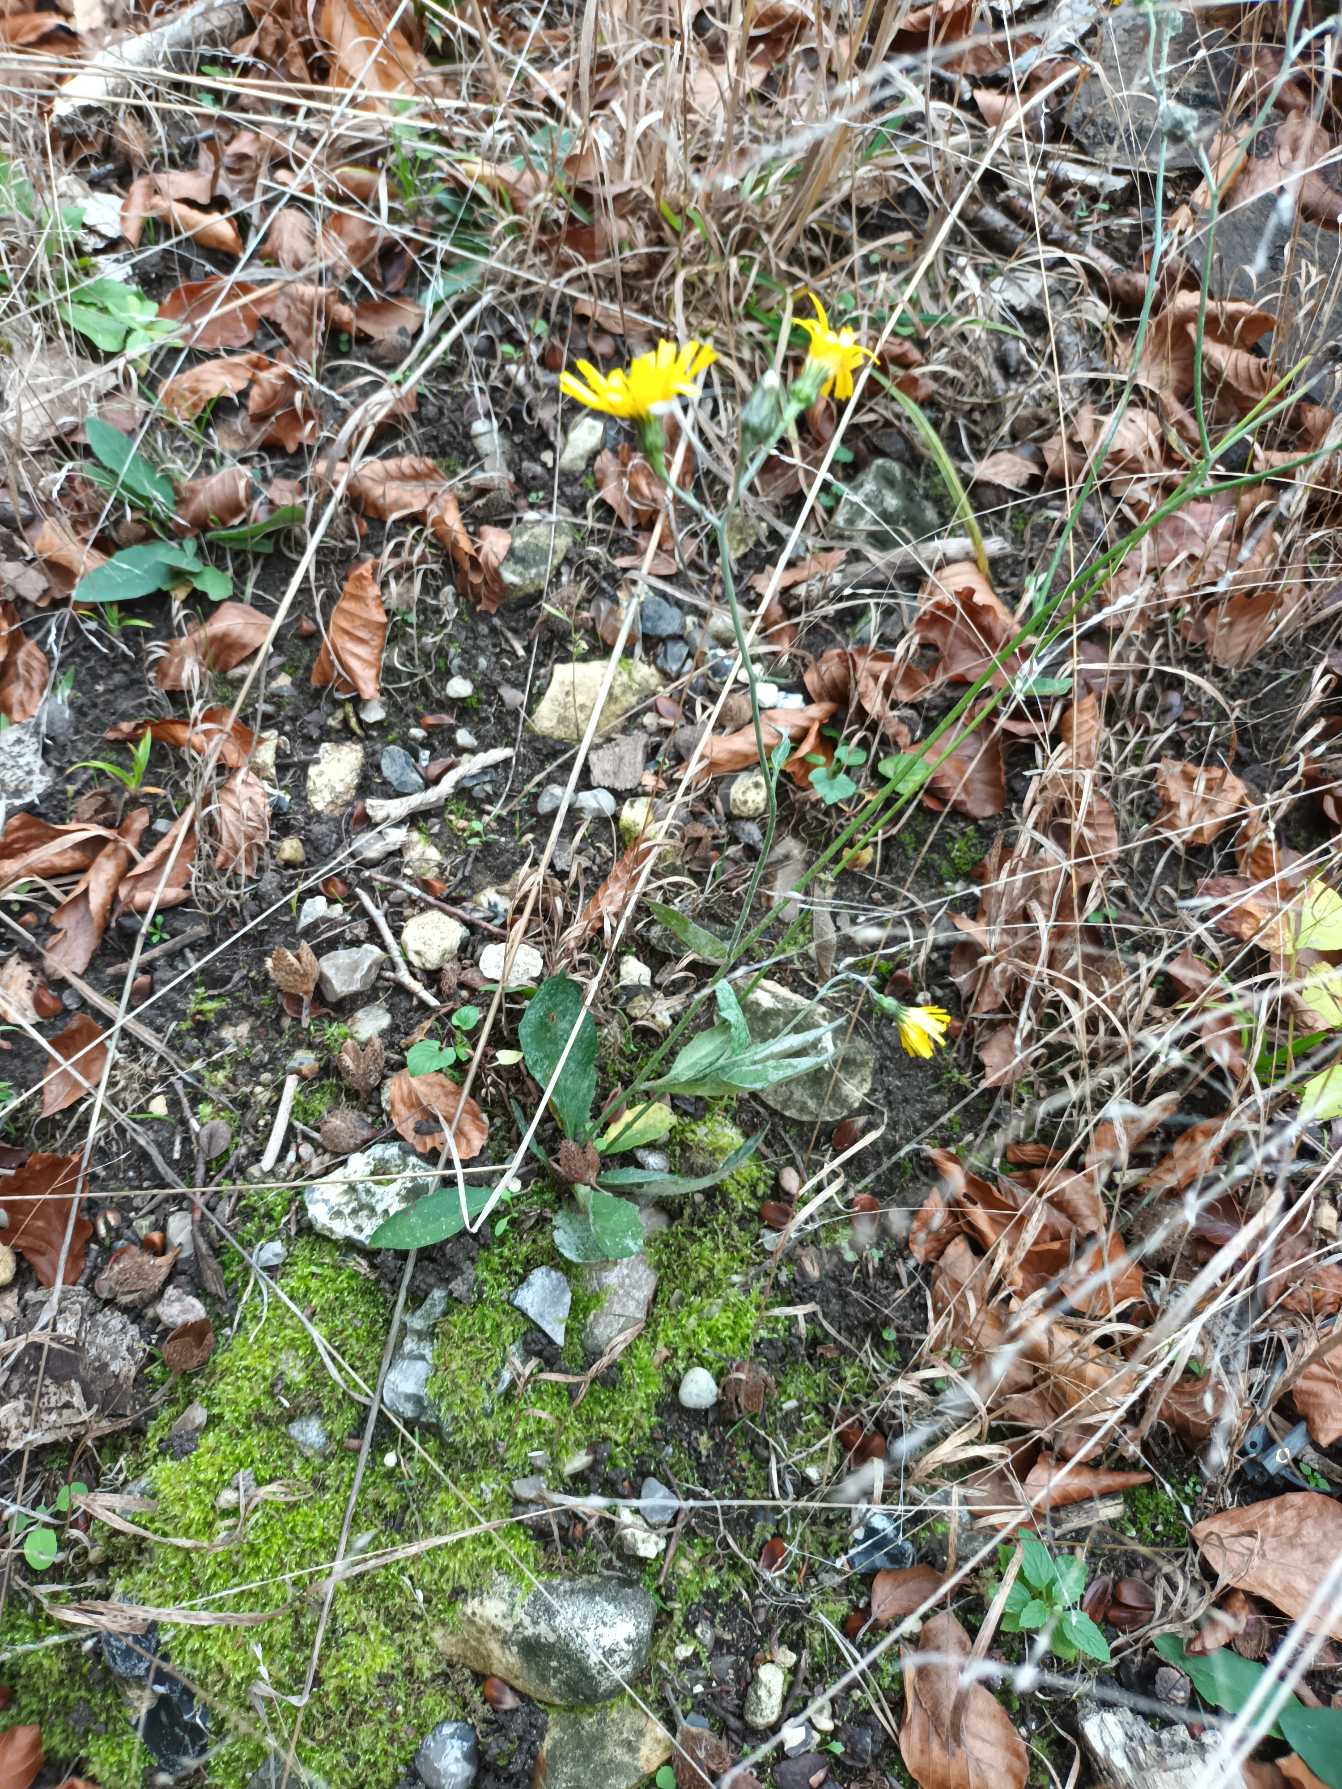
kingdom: Plantae
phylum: Tracheophyta
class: Magnoliopsida
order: Asterales
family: Asteraceae
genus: Hieracium
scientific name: Hieracium
